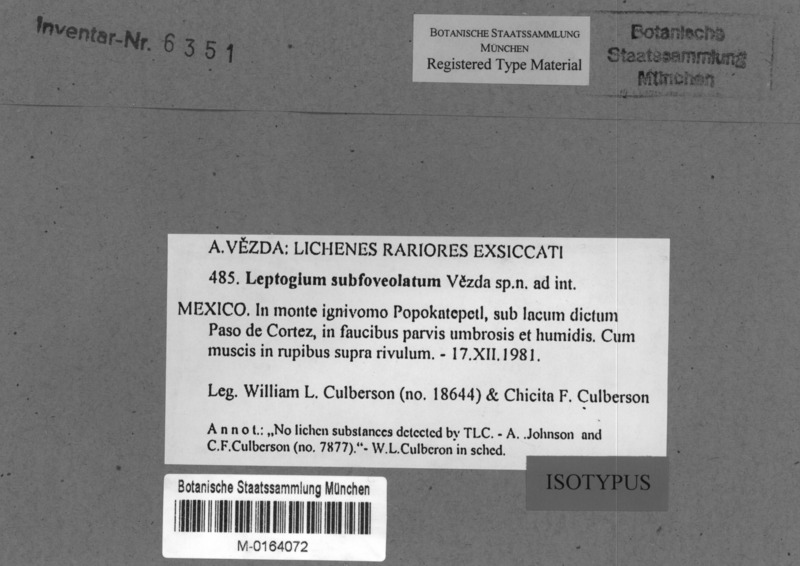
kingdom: Fungi
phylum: Ascomycota
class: Lecanoromycetes
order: Peltigerales
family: Collemataceae
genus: Leptogium
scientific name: Leptogium
